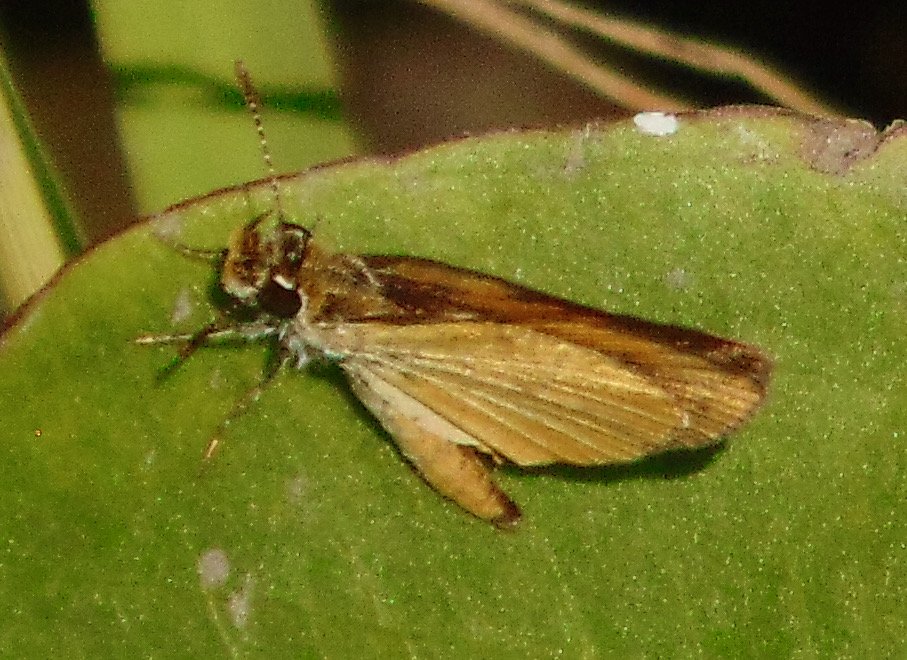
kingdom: Animalia
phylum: Arthropoda
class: Insecta
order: Lepidoptera
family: Hesperiidae
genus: Ancyloxypha
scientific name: Ancyloxypha numitor
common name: Least Skipper
